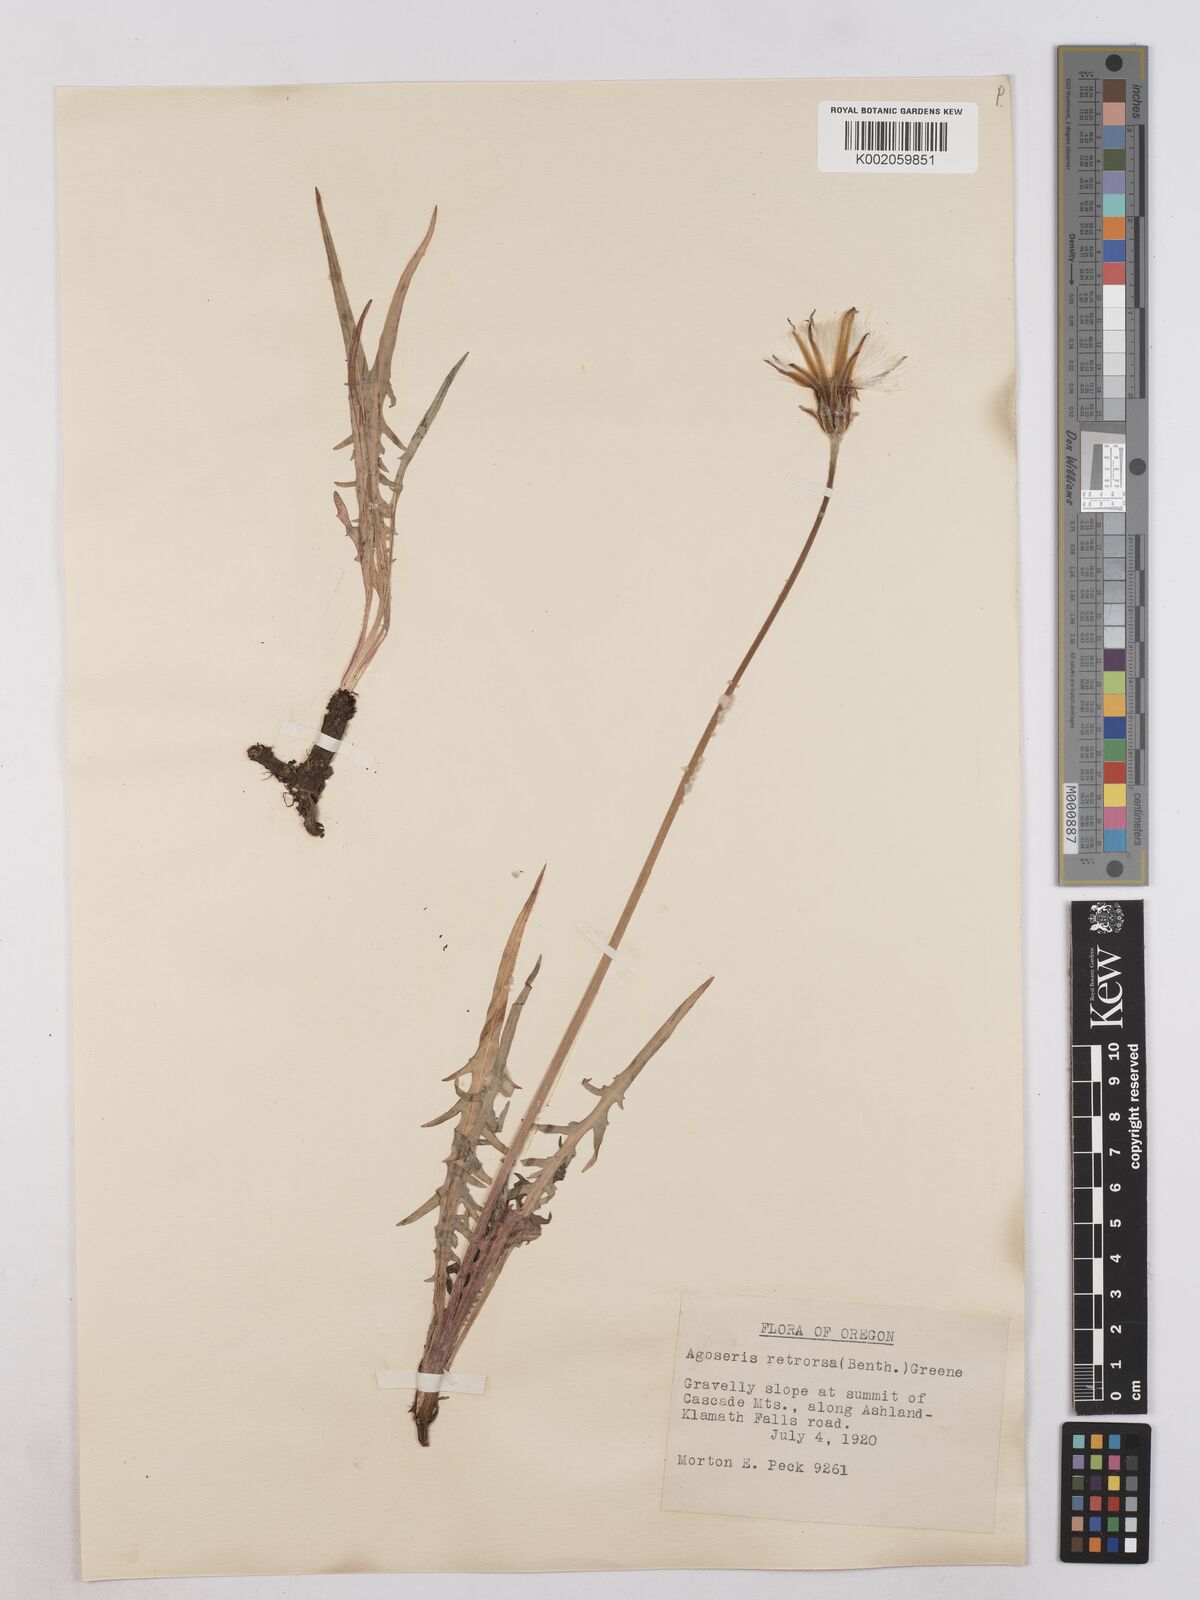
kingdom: Plantae
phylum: Tracheophyta
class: Magnoliopsida
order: Asterales
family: Asteraceae
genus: Agoseris
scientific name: Agoseris retrorsa
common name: Spearleaf agoseris
